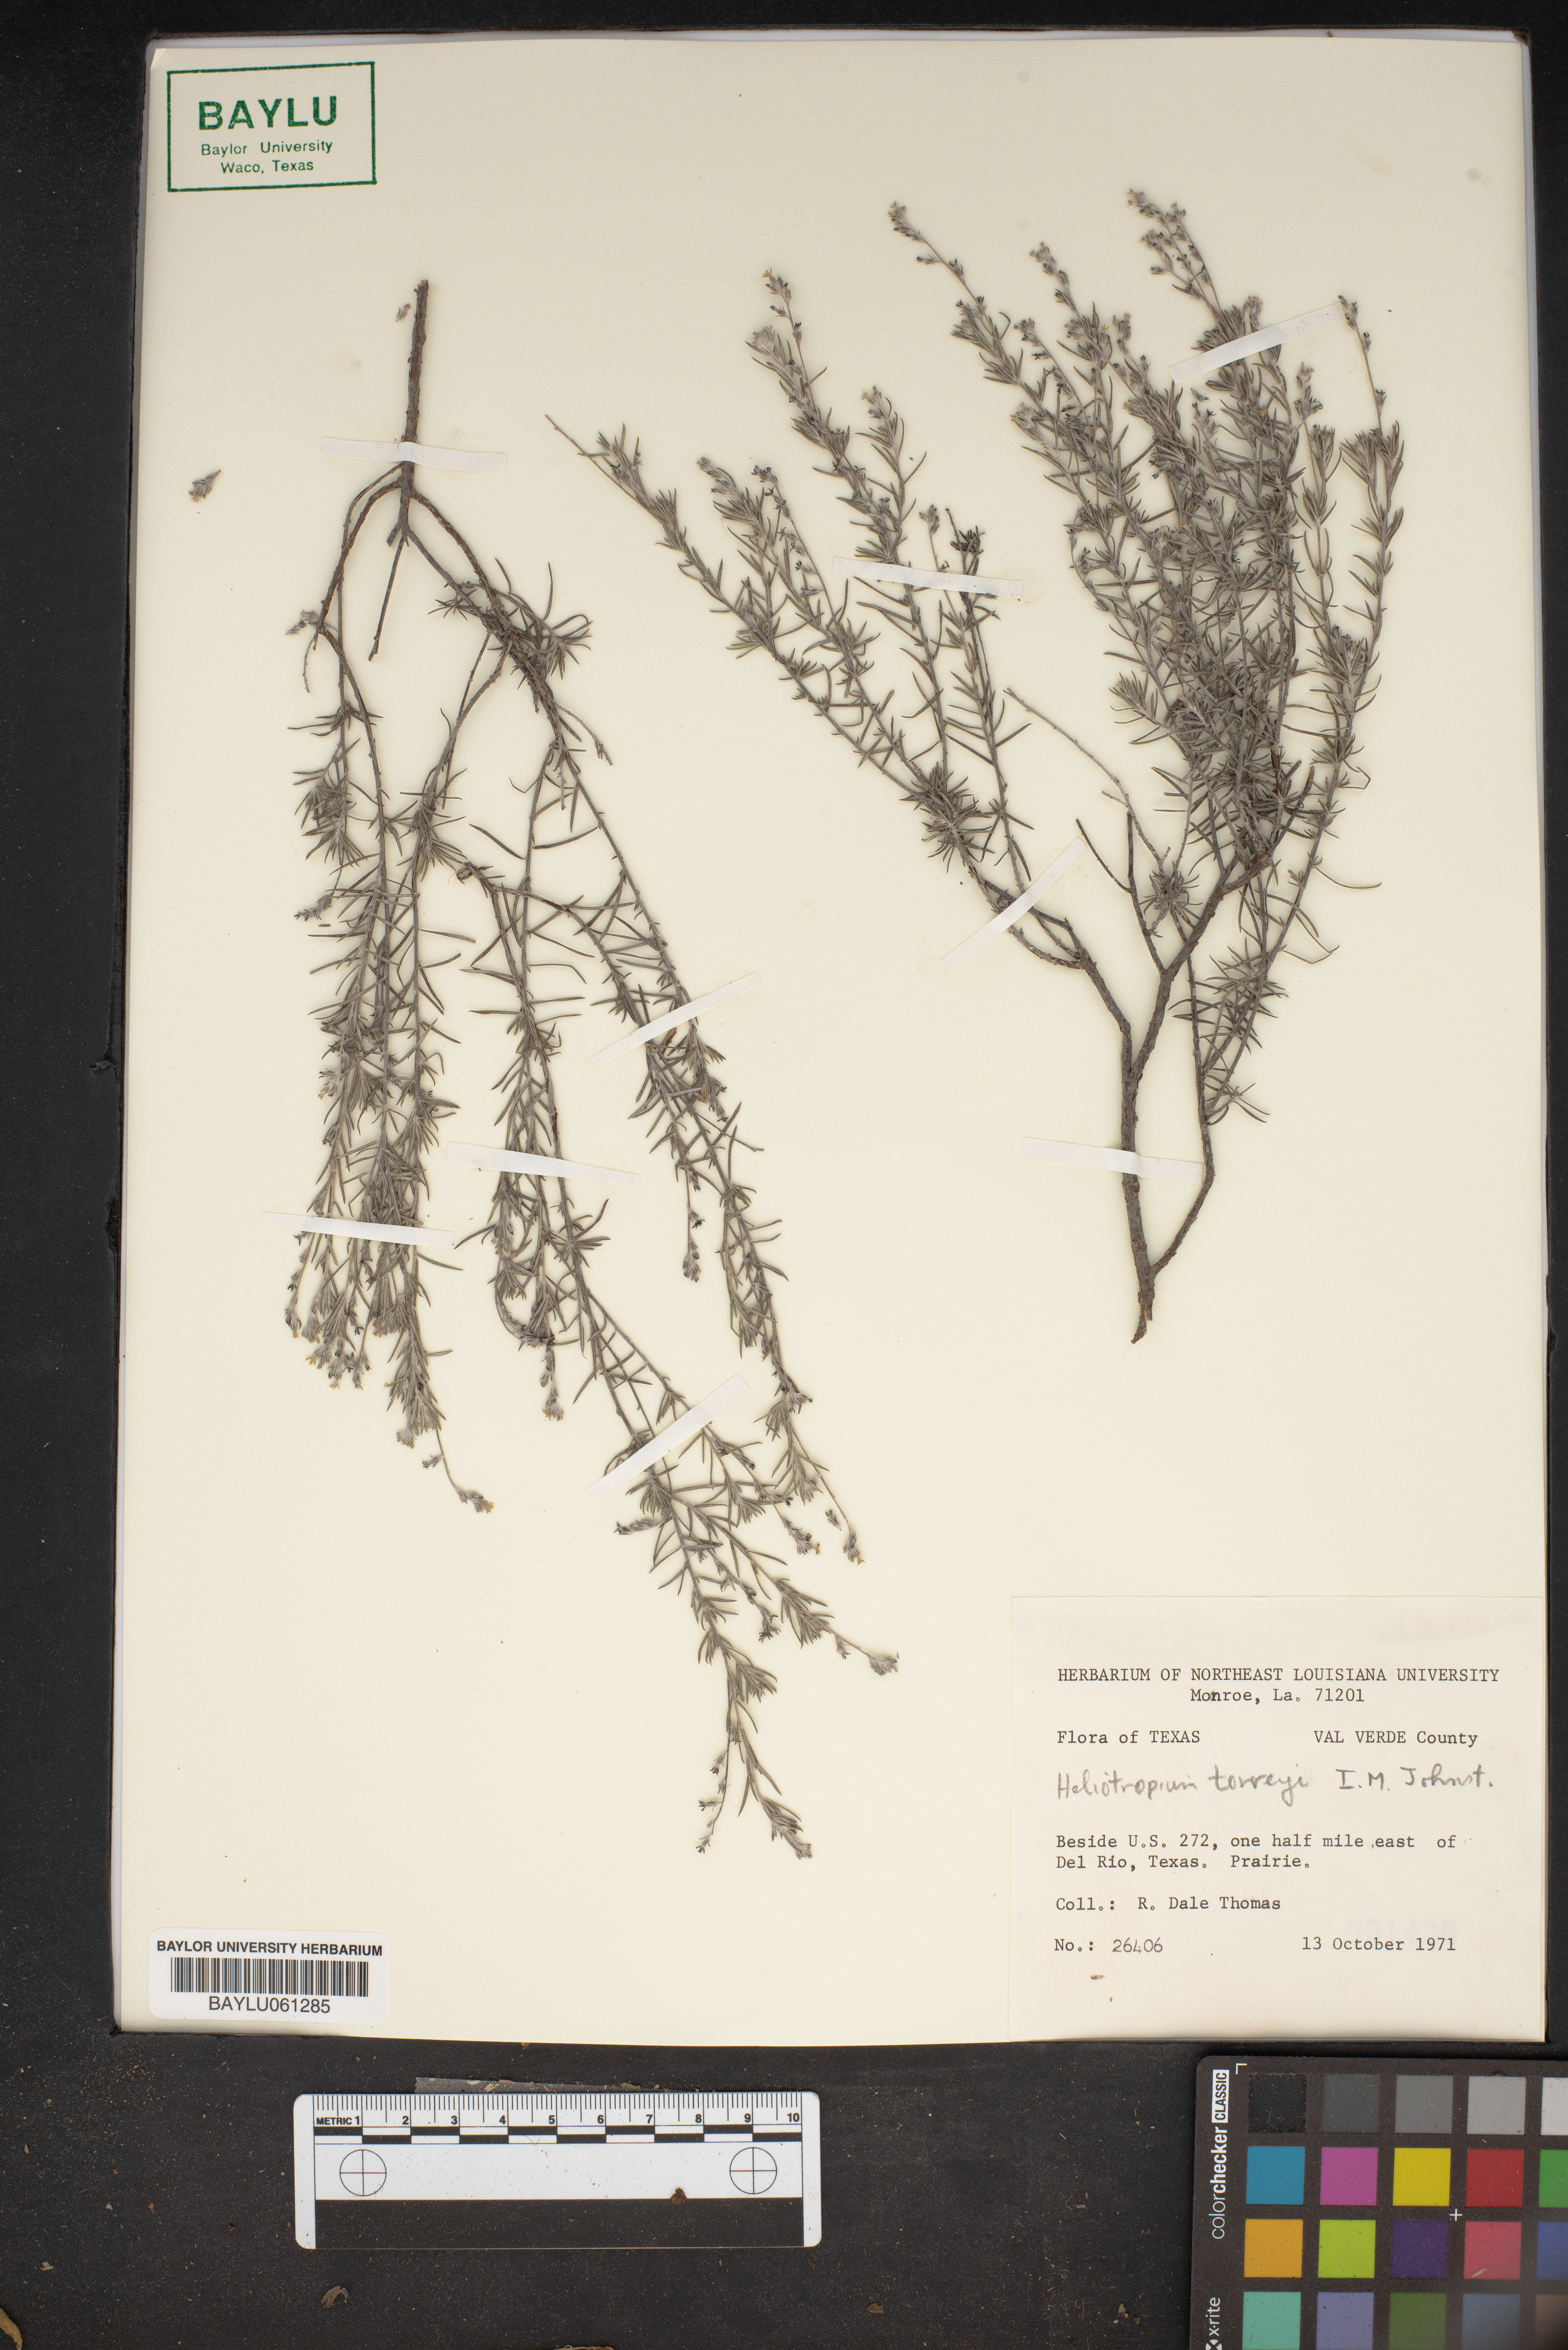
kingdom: Plantae
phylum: Tracheophyta
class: Magnoliopsida
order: Boraginales
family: Heliotropiaceae
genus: Euploca
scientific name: Euploca torreyi
